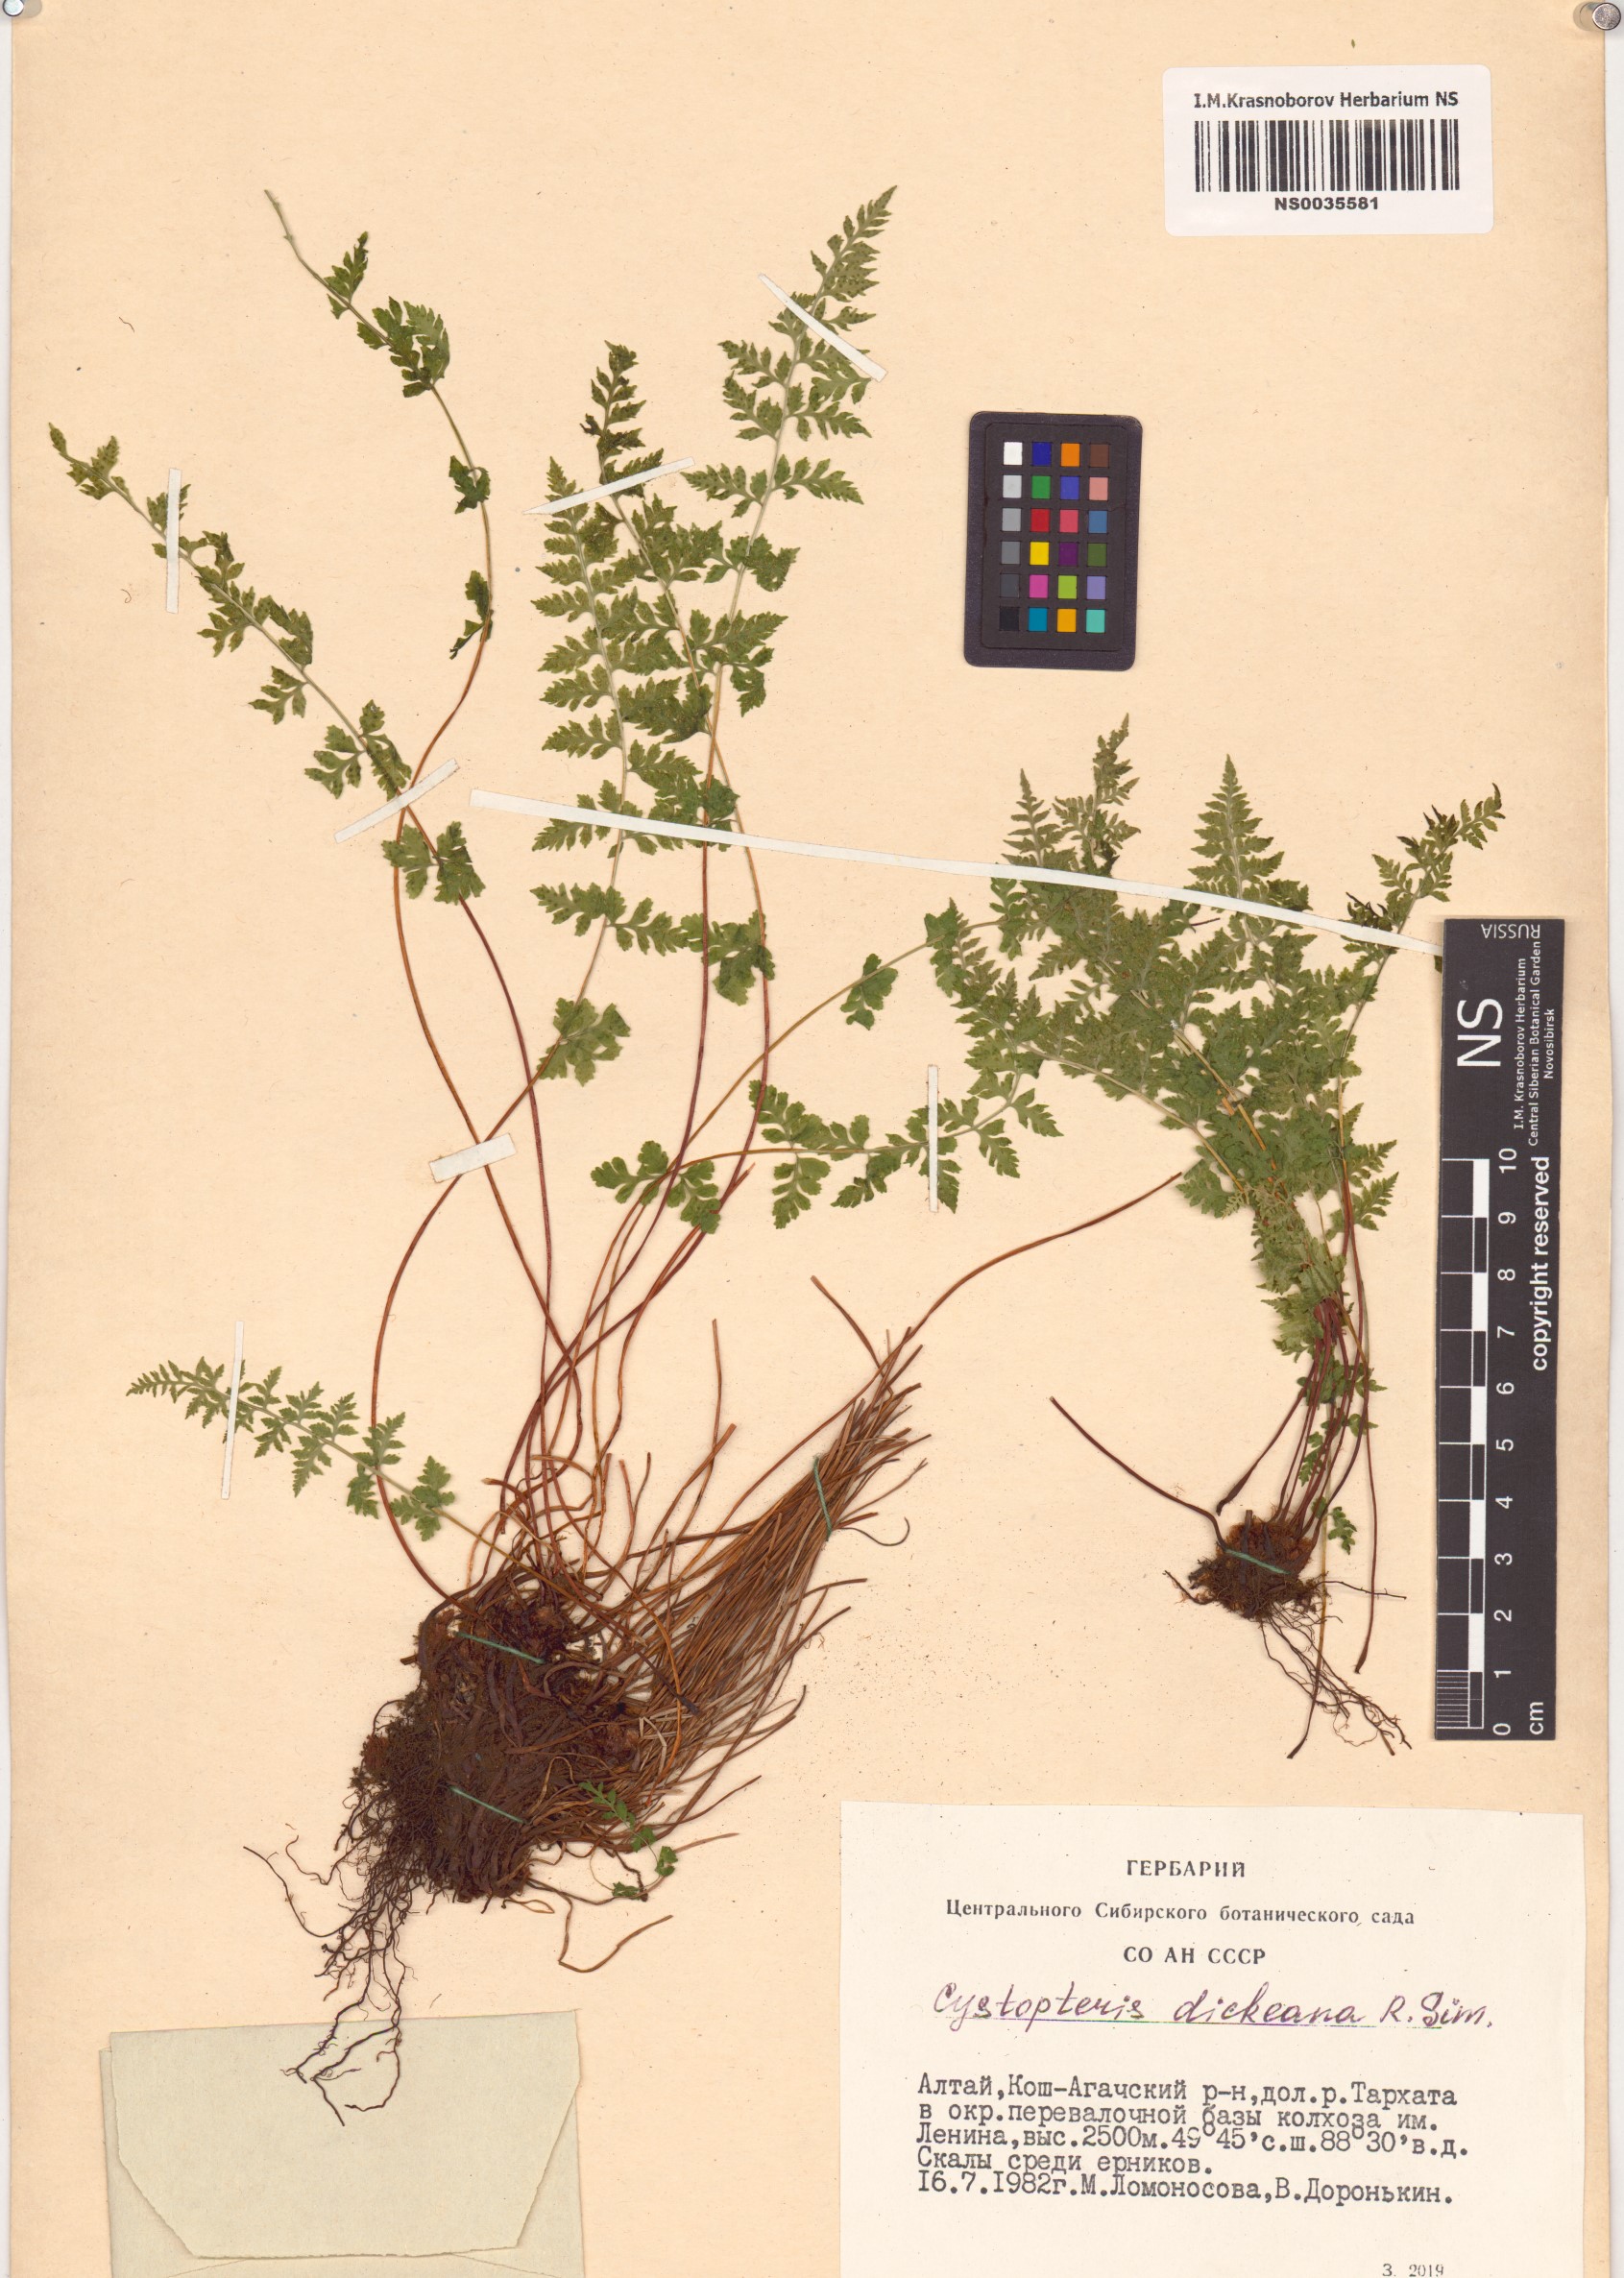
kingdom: Plantae
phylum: Tracheophyta
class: Polypodiopsida
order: Polypodiales
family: Cystopteridaceae
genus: Cystopteris
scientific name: Cystopteris dickieana
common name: Dickie's bladder-fern
